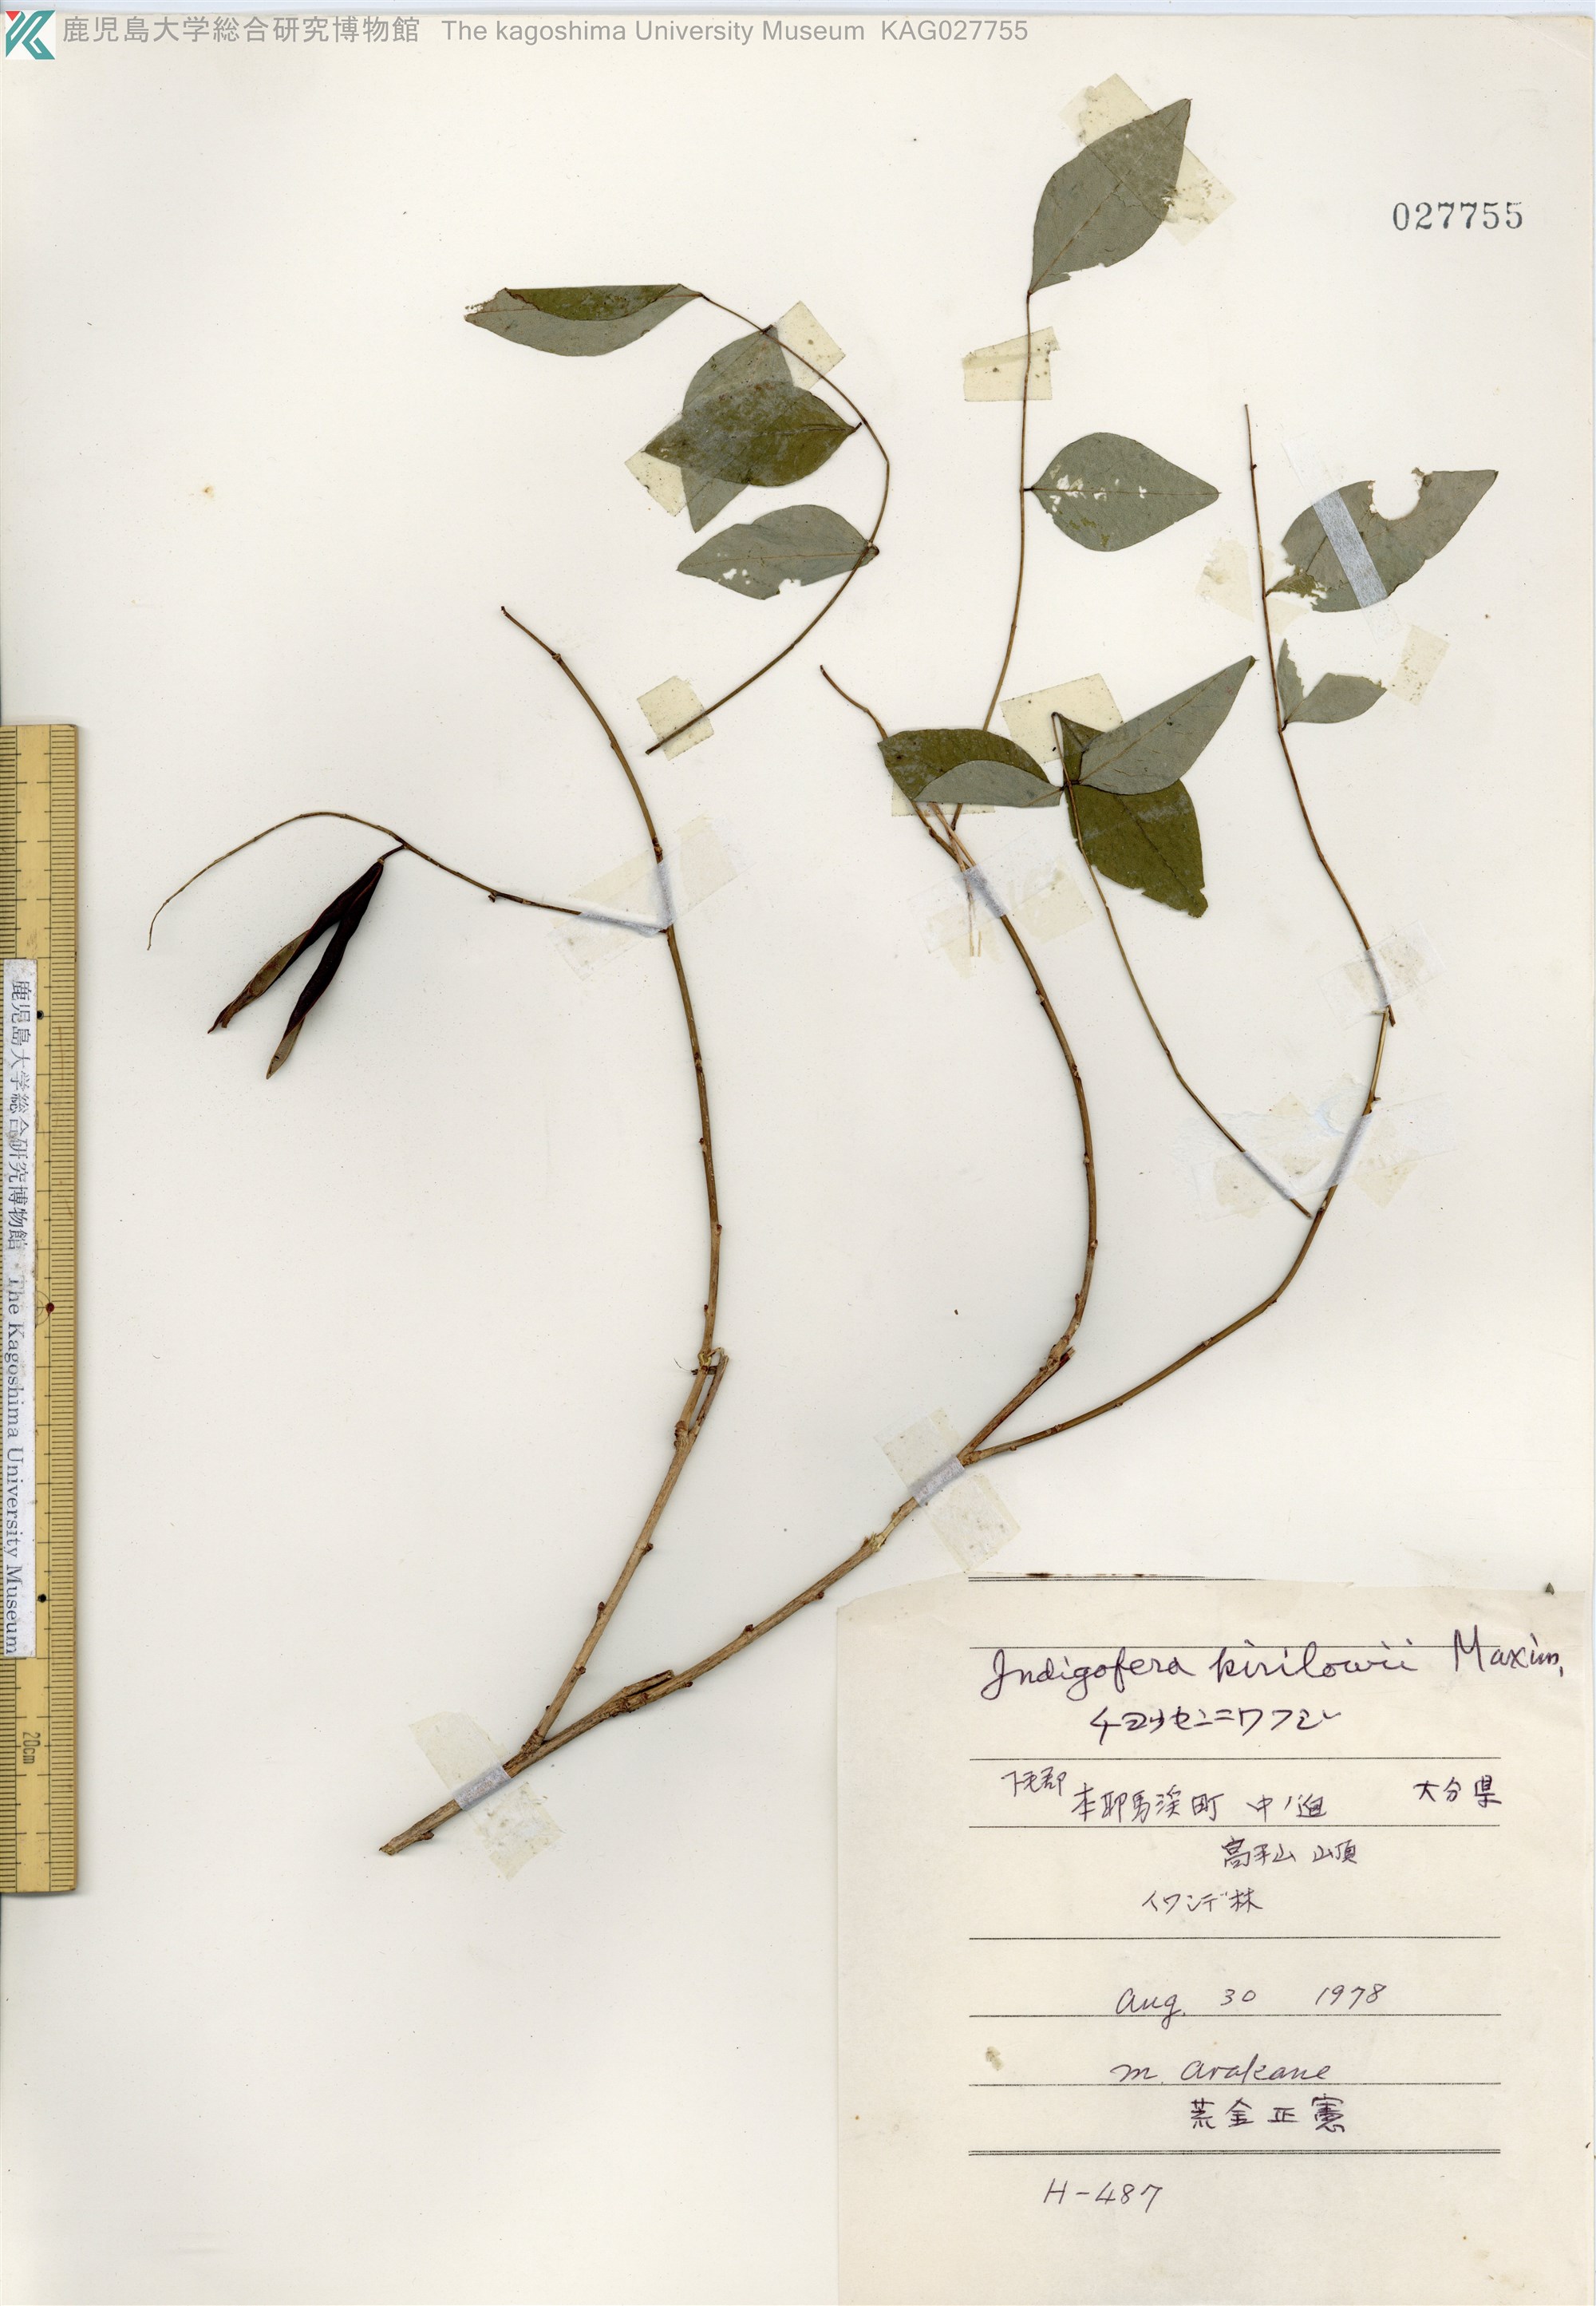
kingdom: Plantae
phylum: Tracheophyta
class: Magnoliopsida
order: Fabales
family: Fabaceae
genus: Indigofera
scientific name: Indigofera kirilowii
